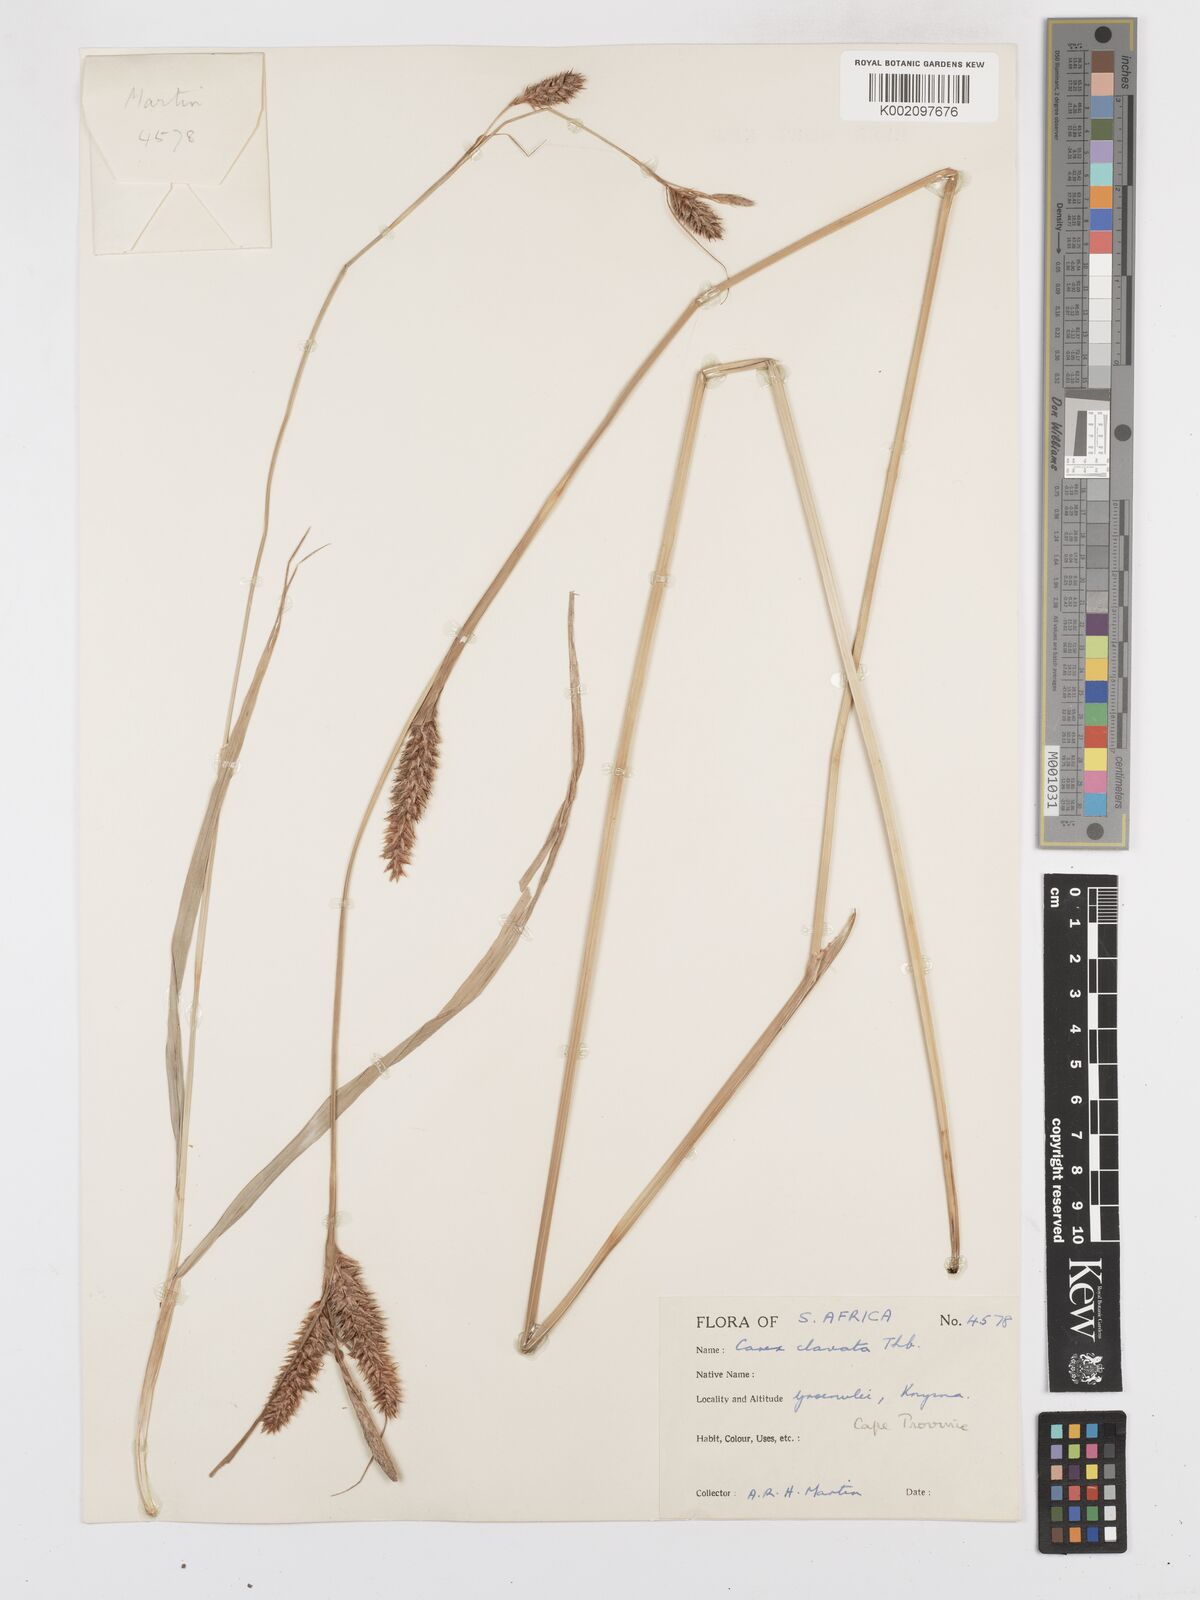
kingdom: Plantae
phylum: Tracheophyta
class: Liliopsida
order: Poales
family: Cyperaceae
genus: Carex
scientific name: Carex clavata
